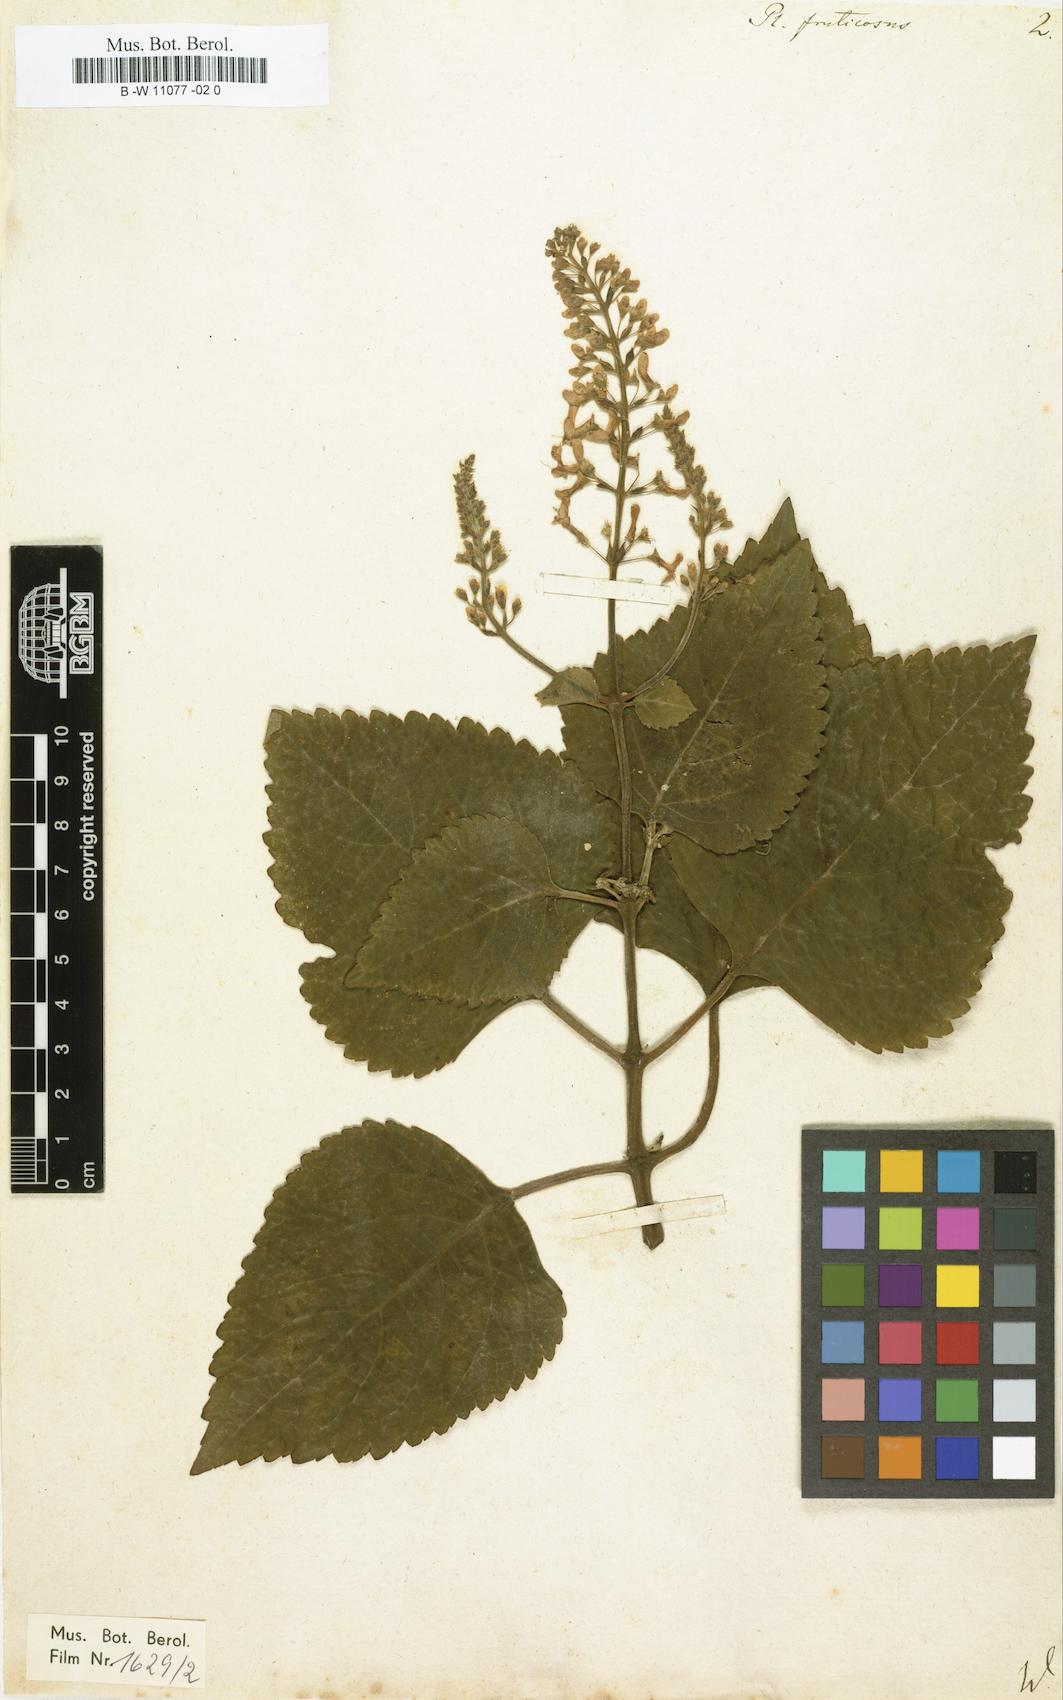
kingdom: Plantae
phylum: Tracheophyta
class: Magnoliopsida
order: Lamiales
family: Lamiaceae
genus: Plectranthus
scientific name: Plectranthus fruticosus
